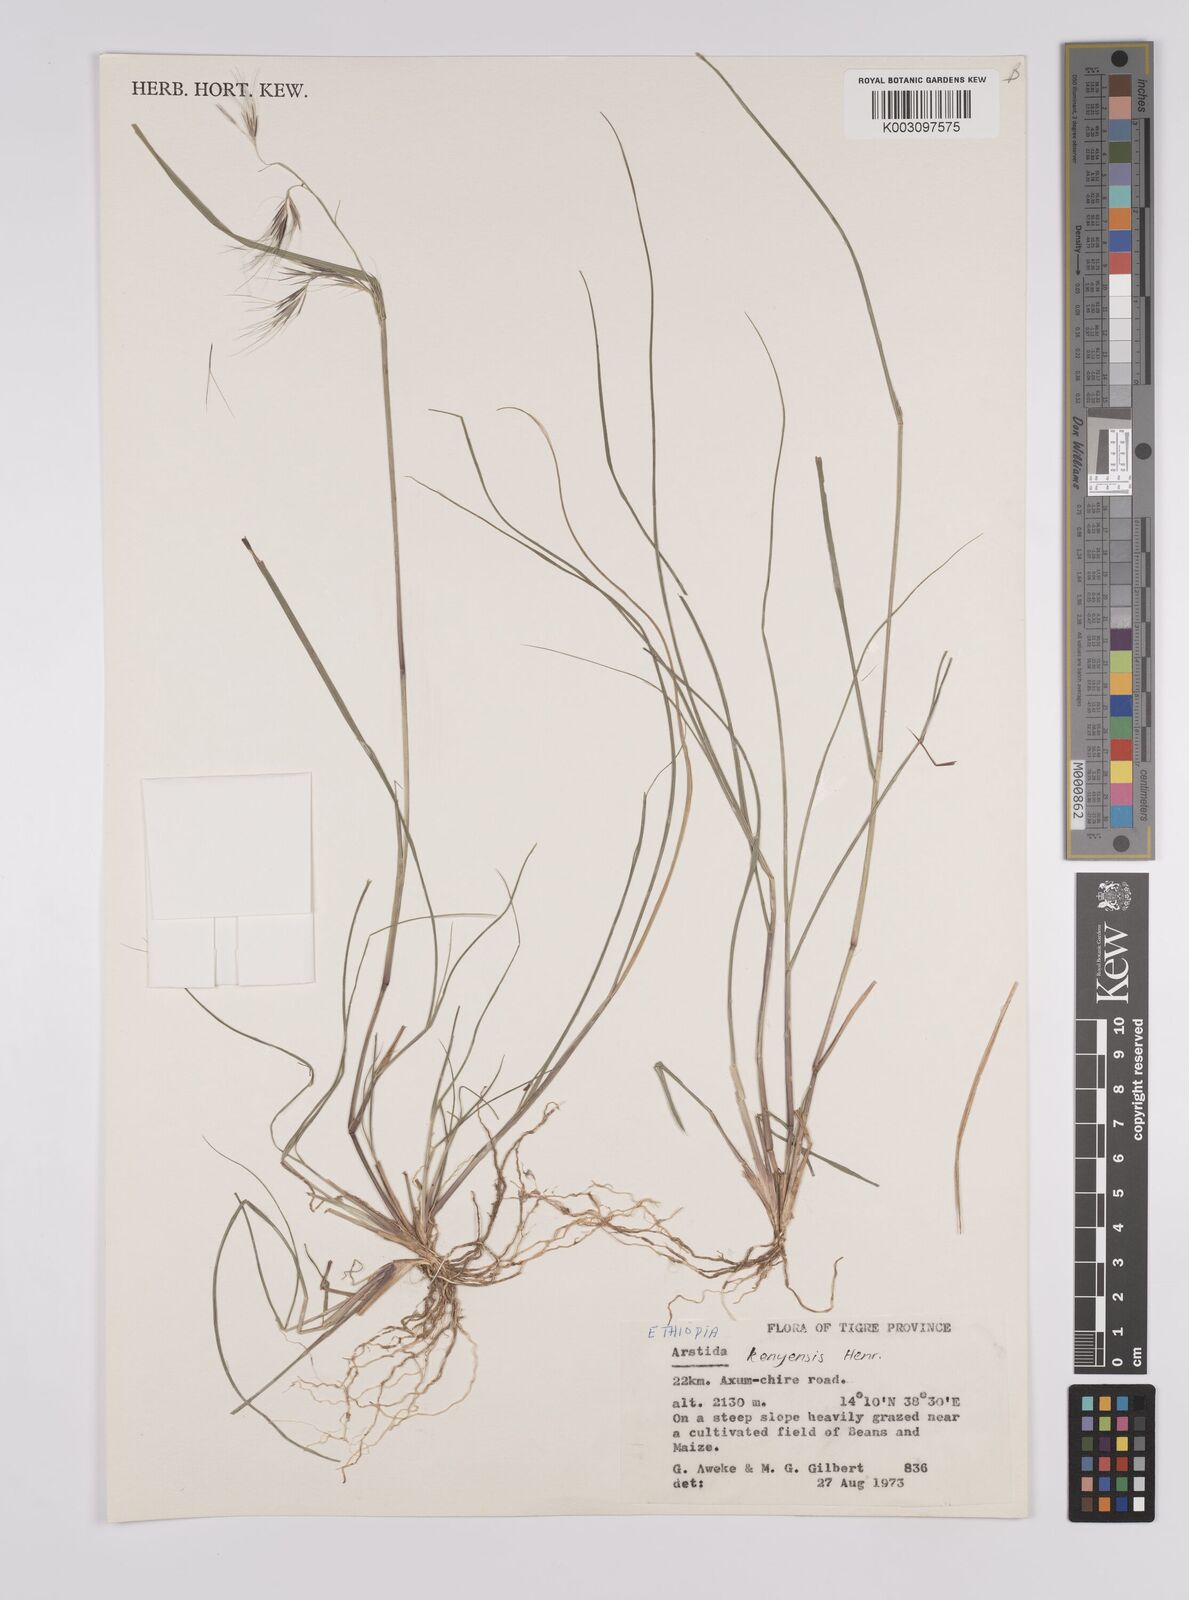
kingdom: Plantae
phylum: Tracheophyta
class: Liliopsida
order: Poales
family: Poaceae
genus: Aristida
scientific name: Aristida kenyensis
